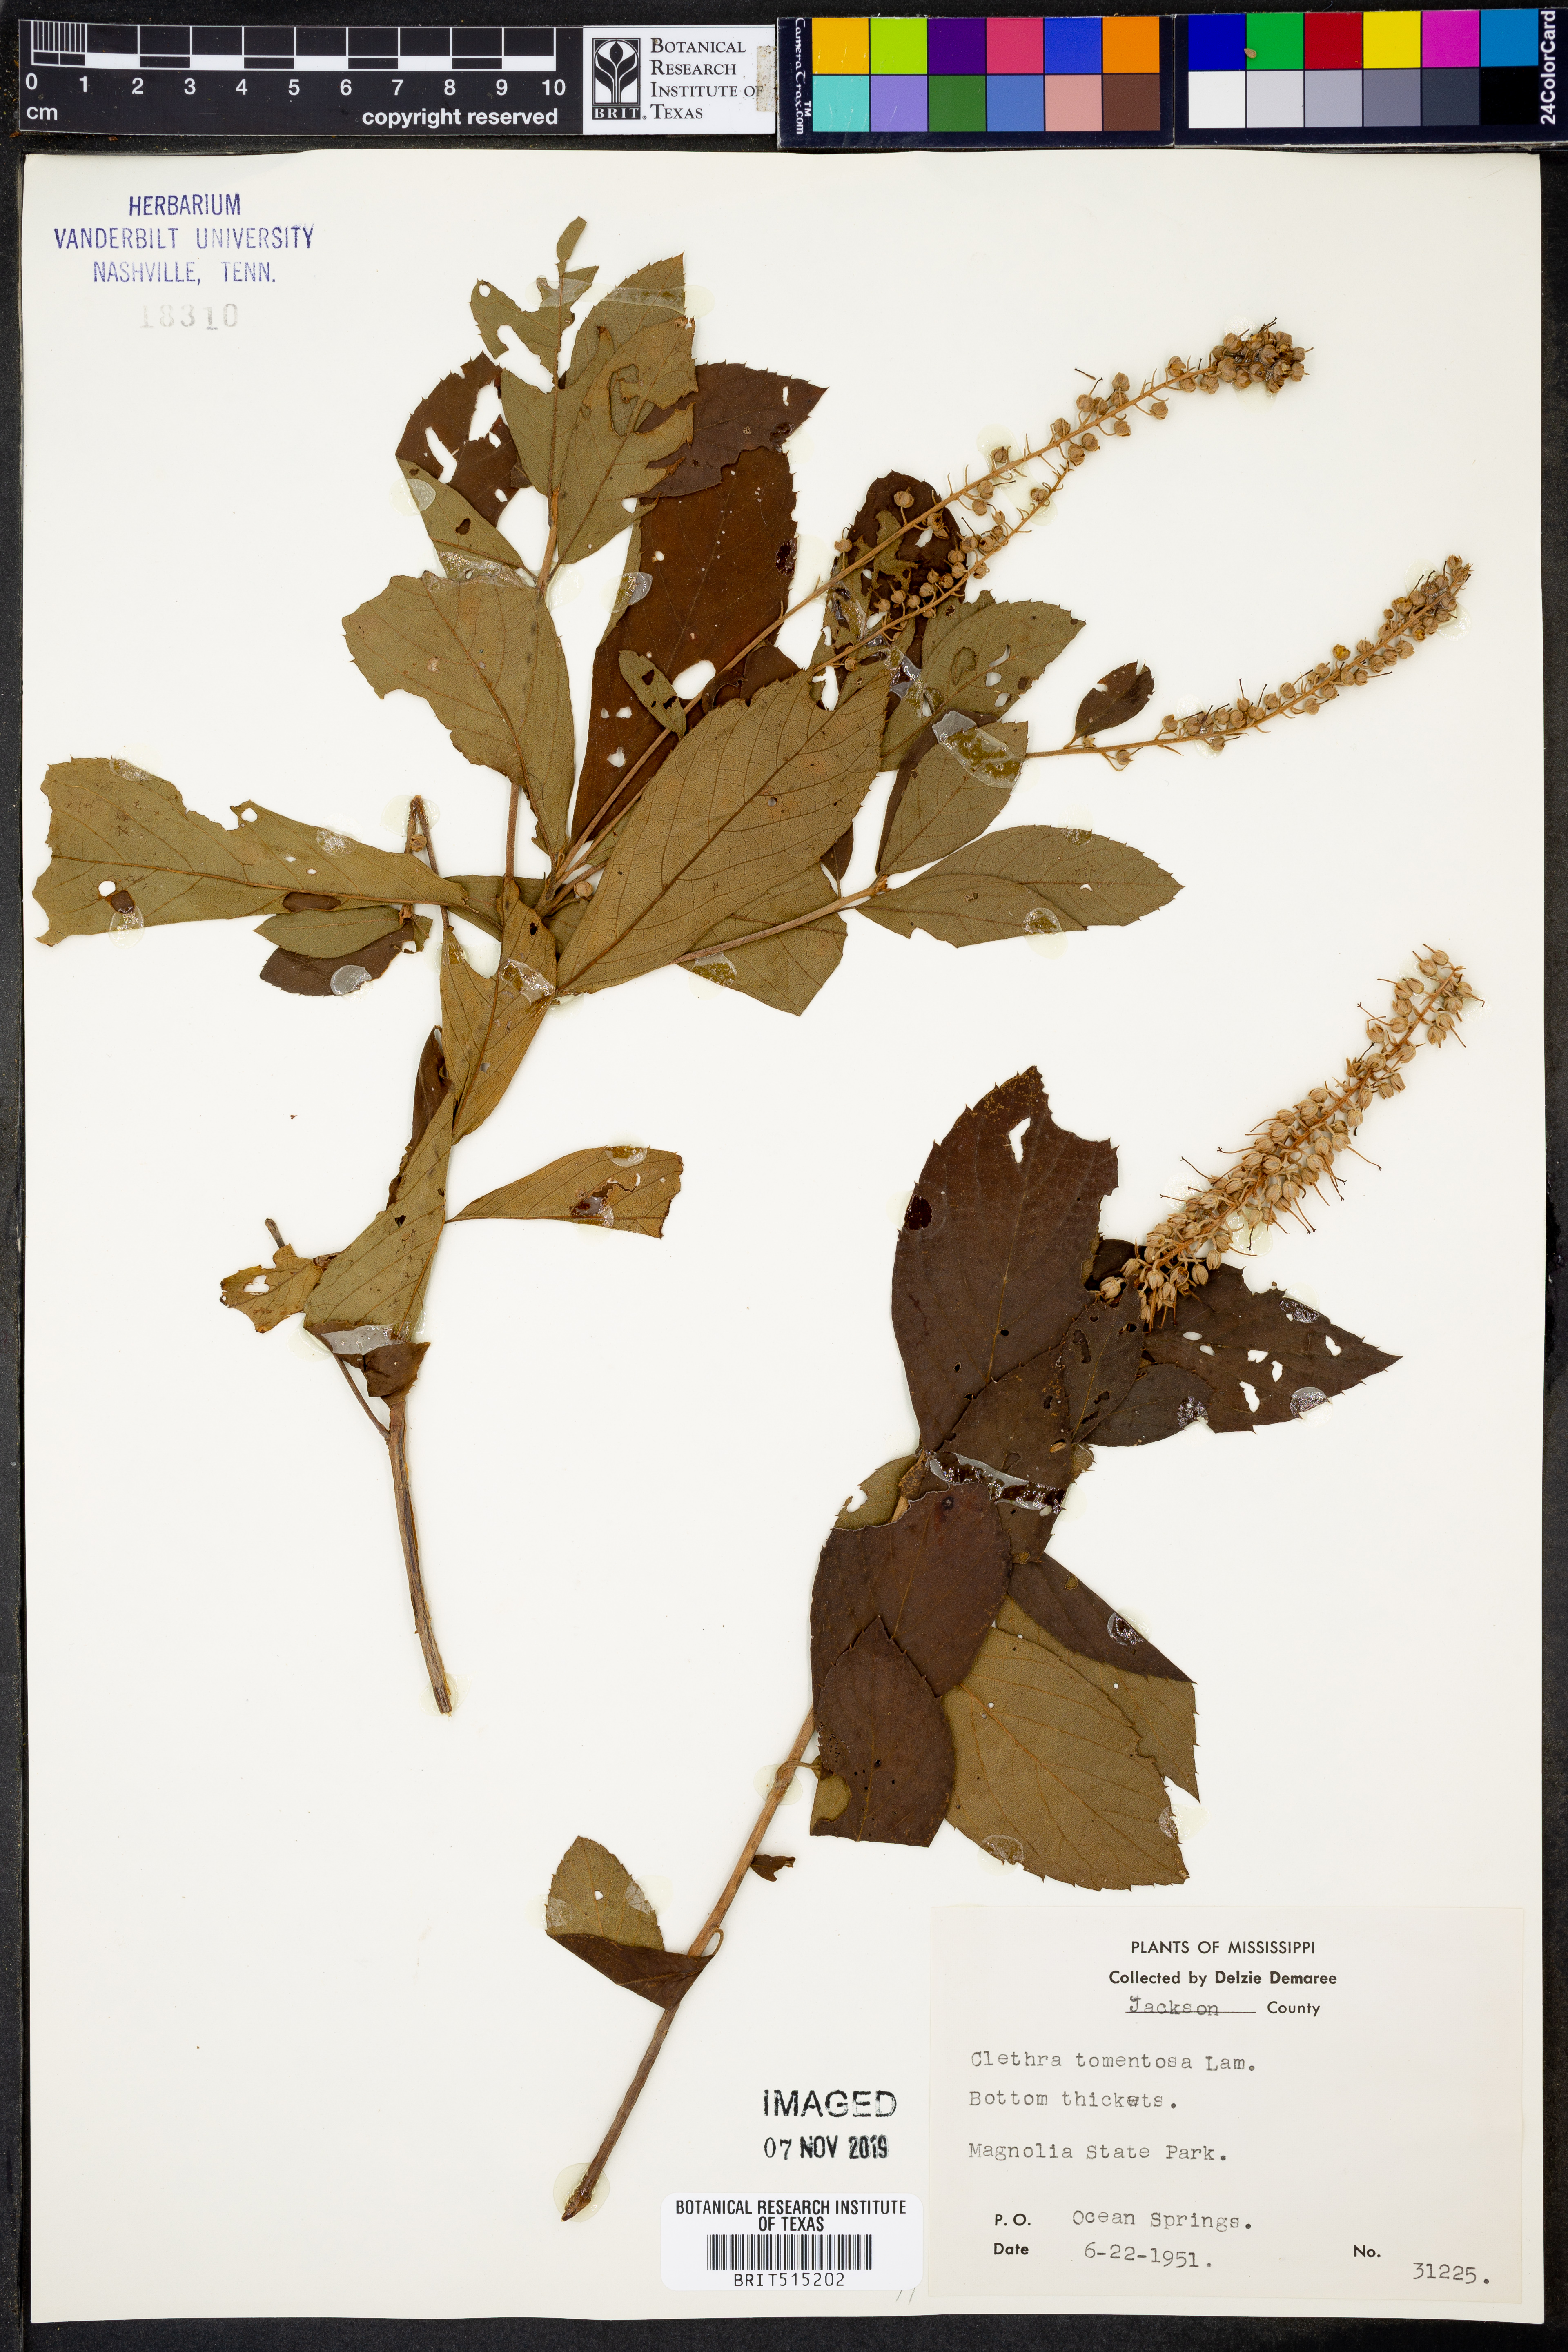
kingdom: Plantae
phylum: Tracheophyta
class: Magnoliopsida
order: Ericales
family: Clethraceae
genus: Clethra
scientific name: Clethra tomentosa
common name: Downy sweet pepperbush
